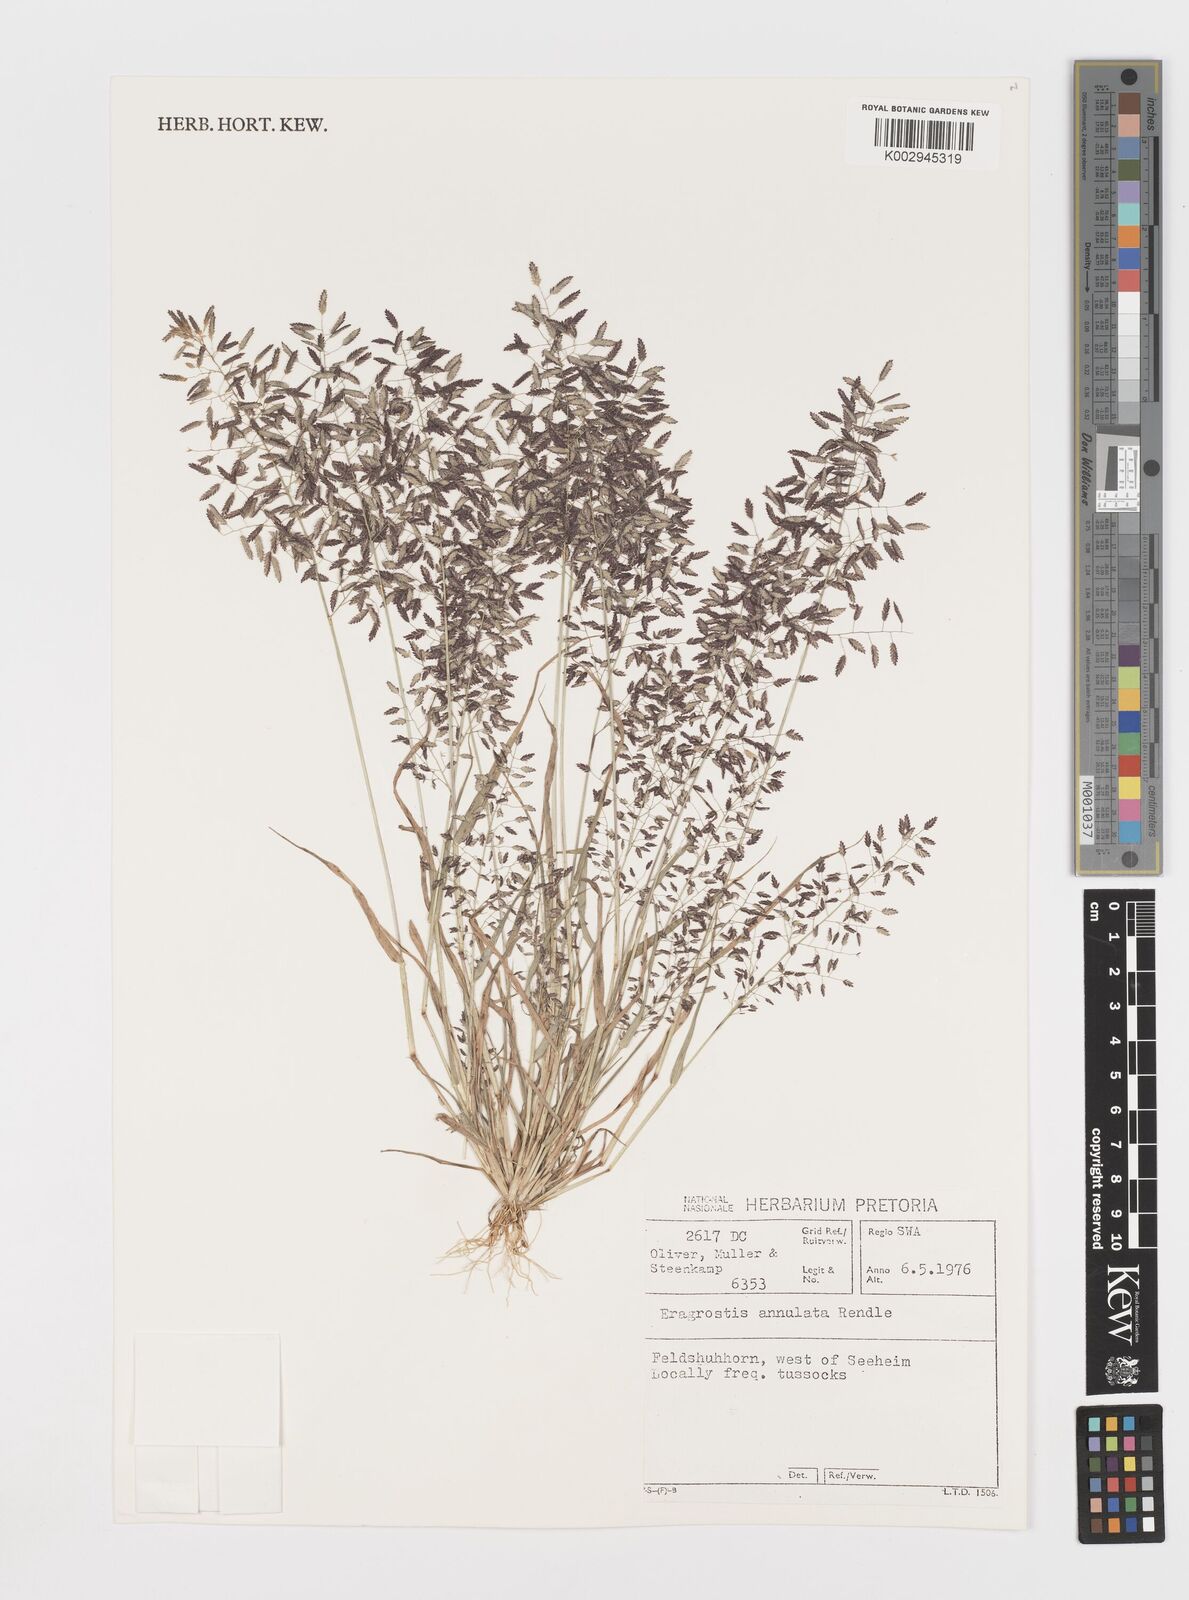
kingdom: Plantae
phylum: Tracheophyta
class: Liliopsida
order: Poales
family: Poaceae
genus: Eragrostis
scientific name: Eragrostis annulata
